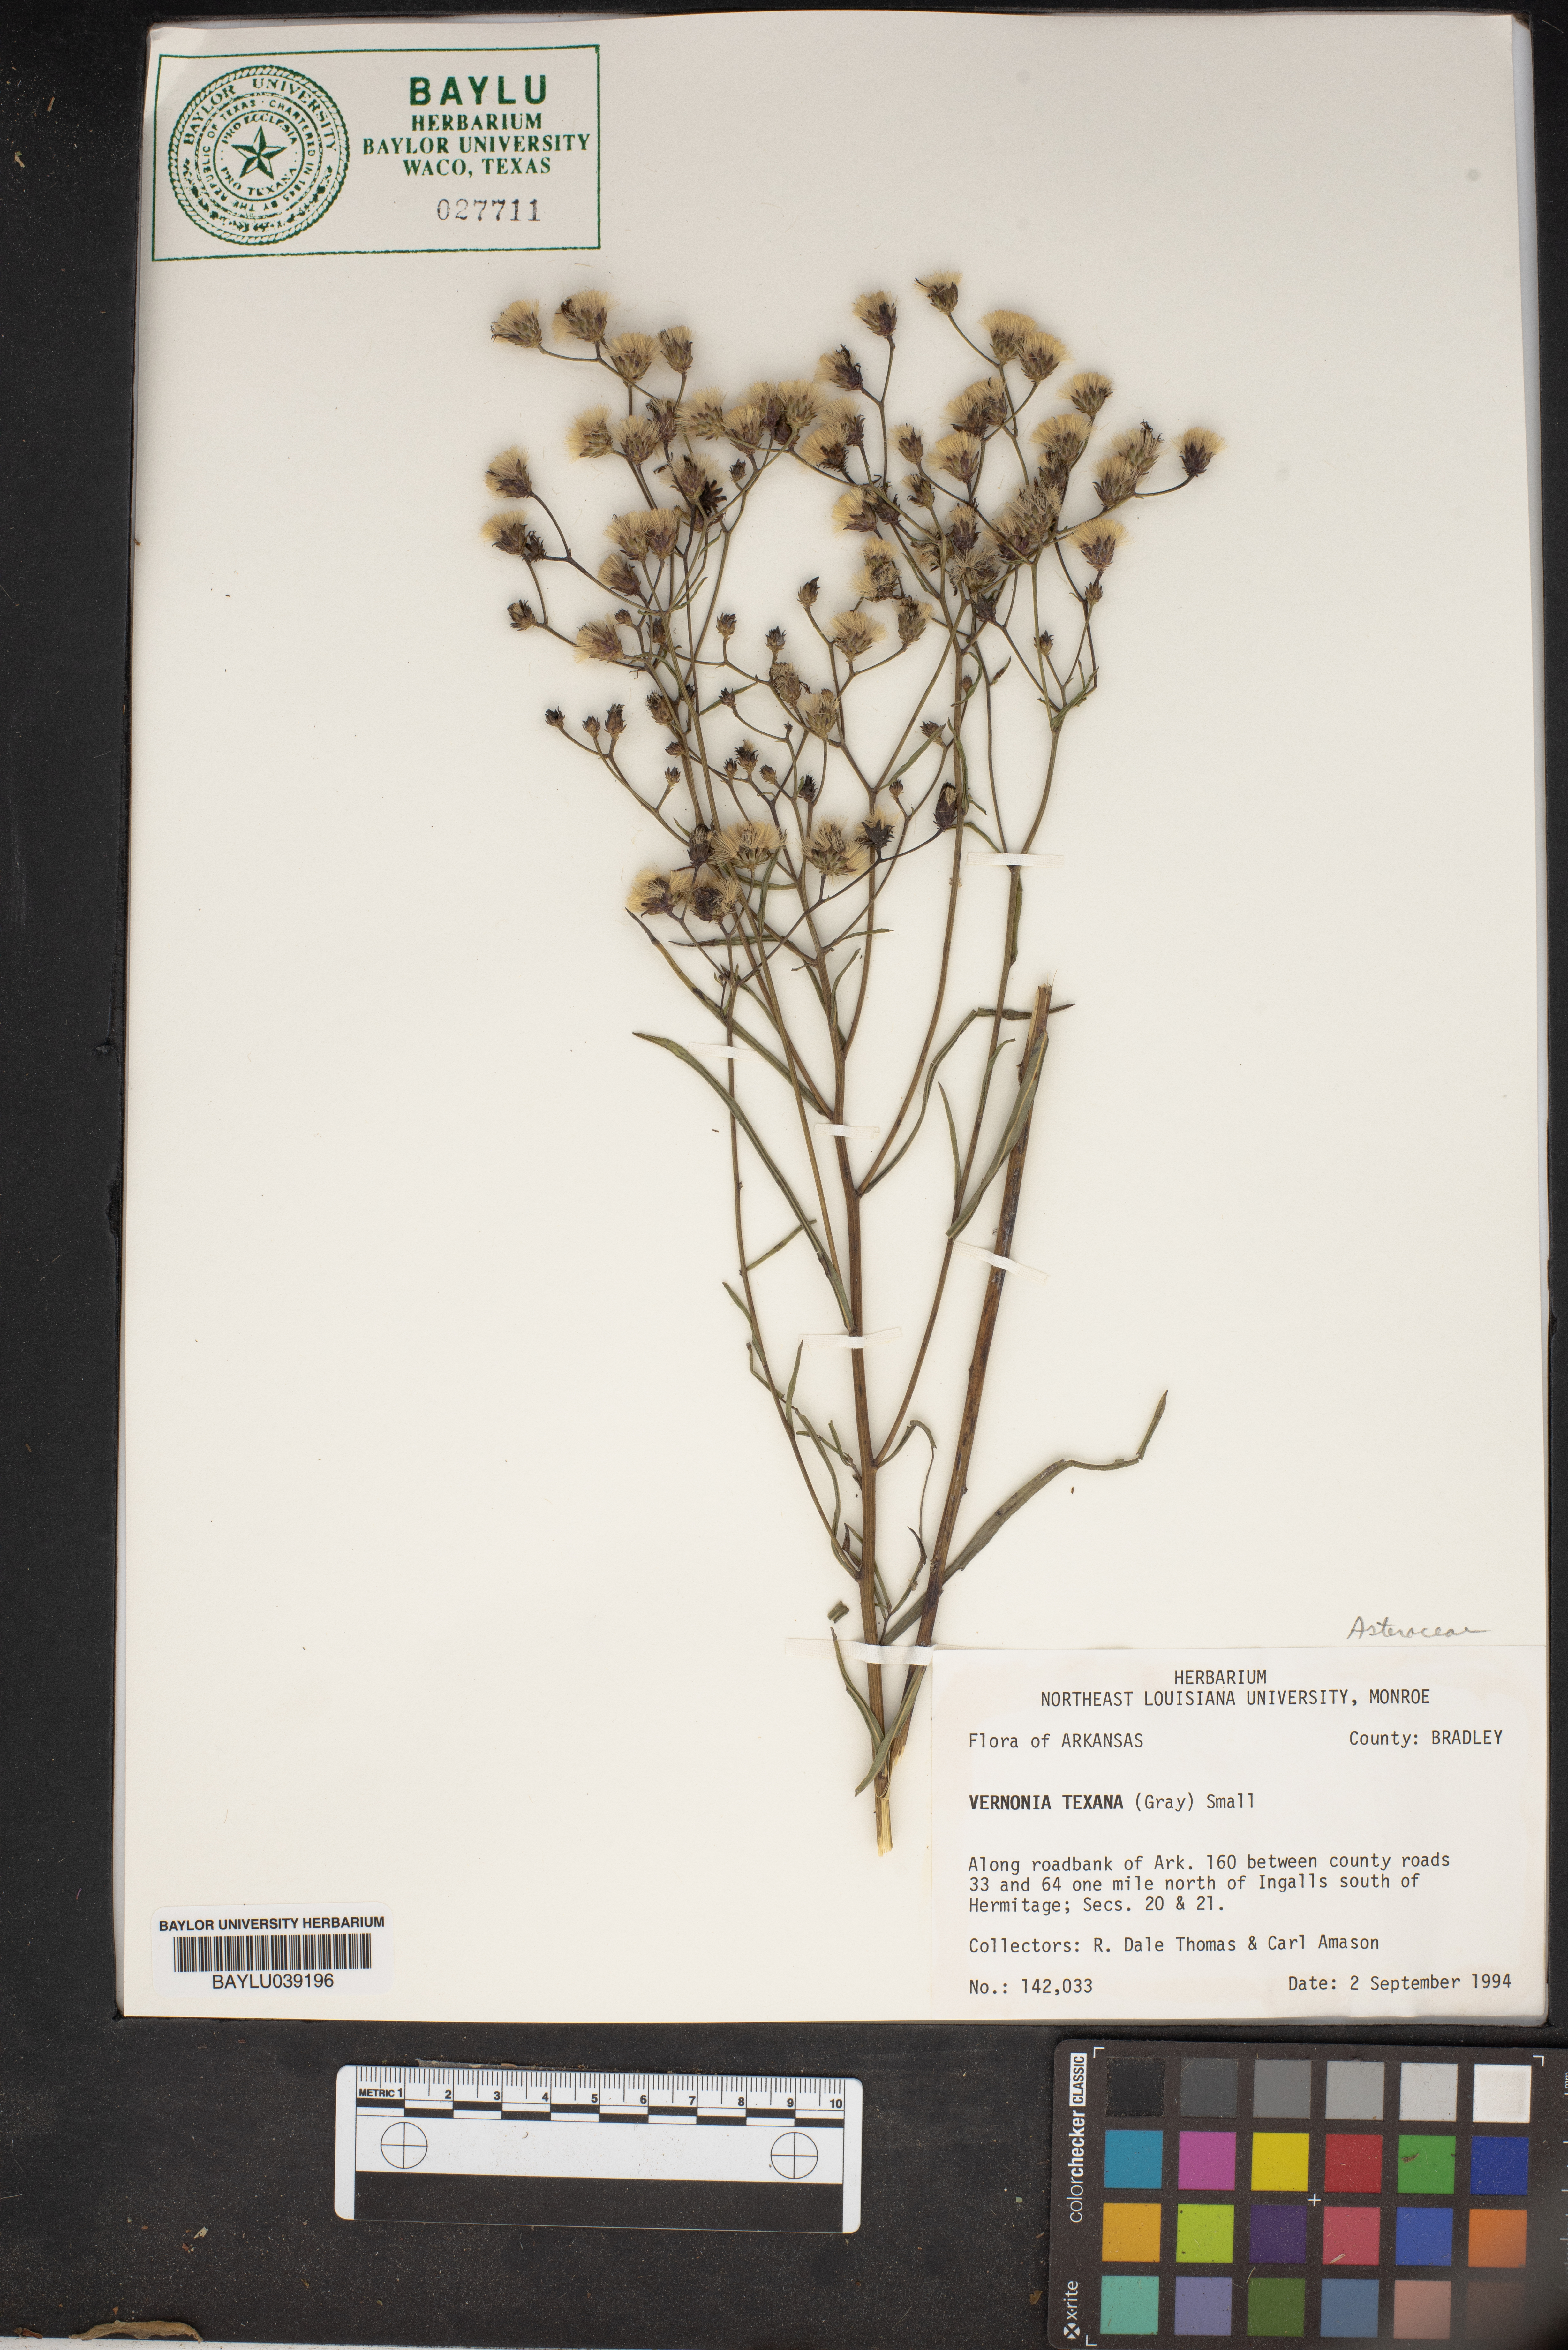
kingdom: Plantae
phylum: Tracheophyta
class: Magnoliopsida
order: Asterales
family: Asteraceae
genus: Vernonia
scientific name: Vernonia texana
